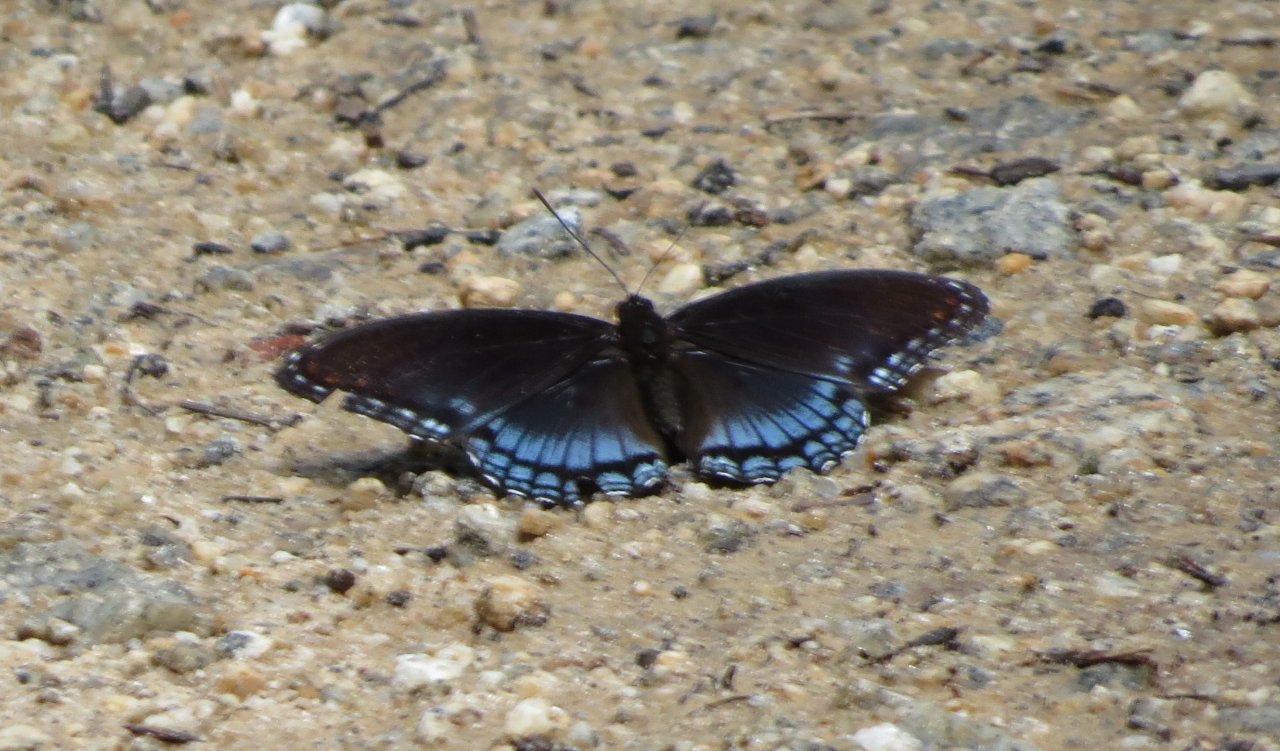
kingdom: Animalia
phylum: Arthropoda
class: Insecta
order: Lepidoptera
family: Nymphalidae
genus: Limenitis
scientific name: Limenitis astyanax
